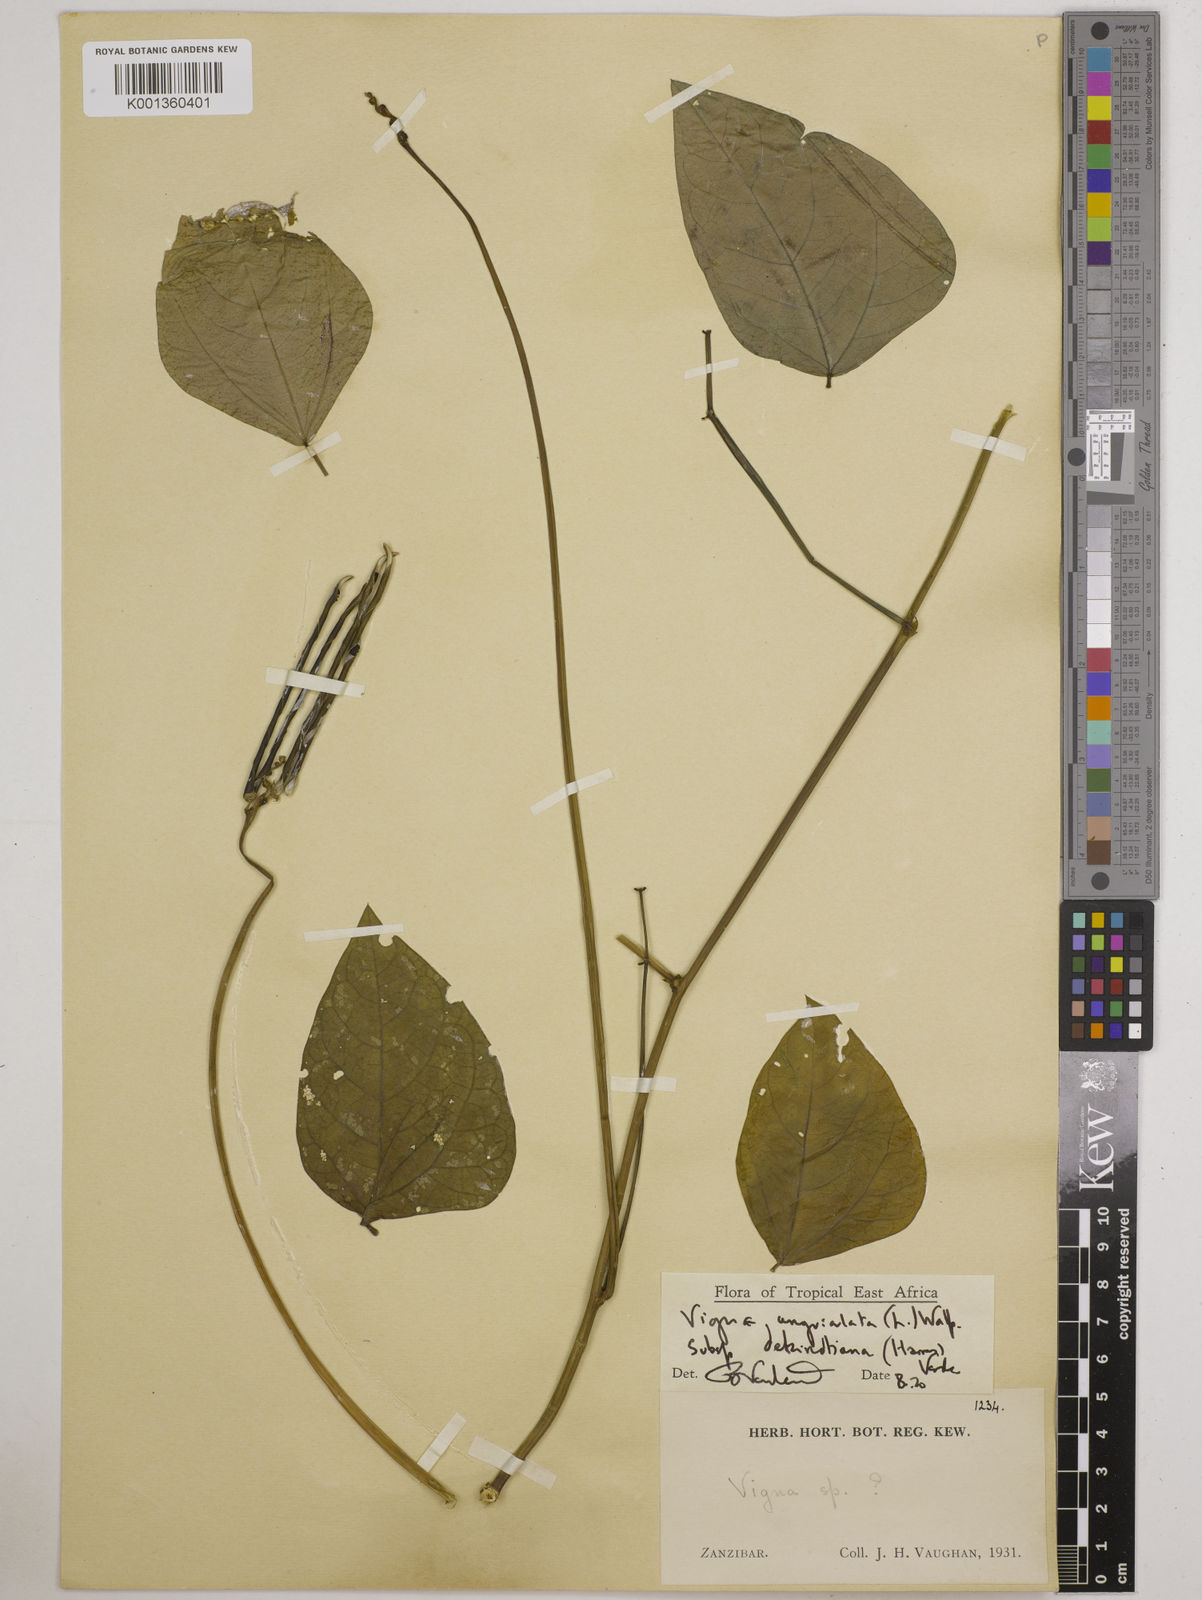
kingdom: Plantae
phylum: Tracheophyta
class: Magnoliopsida
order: Fabales
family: Fabaceae
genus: Vigna
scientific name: Vigna
